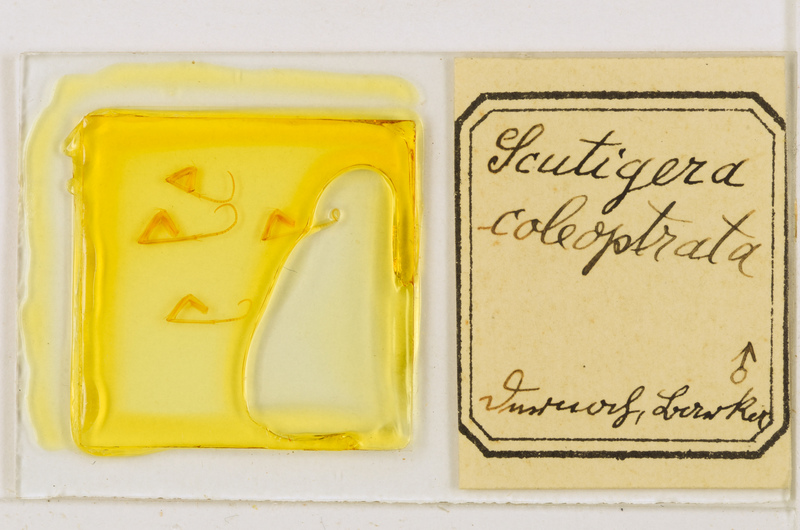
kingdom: Animalia
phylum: Arthropoda
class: Chilopoda
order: Scutigeromorpha
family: Scutigeridae
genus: Scutigera
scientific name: Scutigera coleoptrata
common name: House centipede
